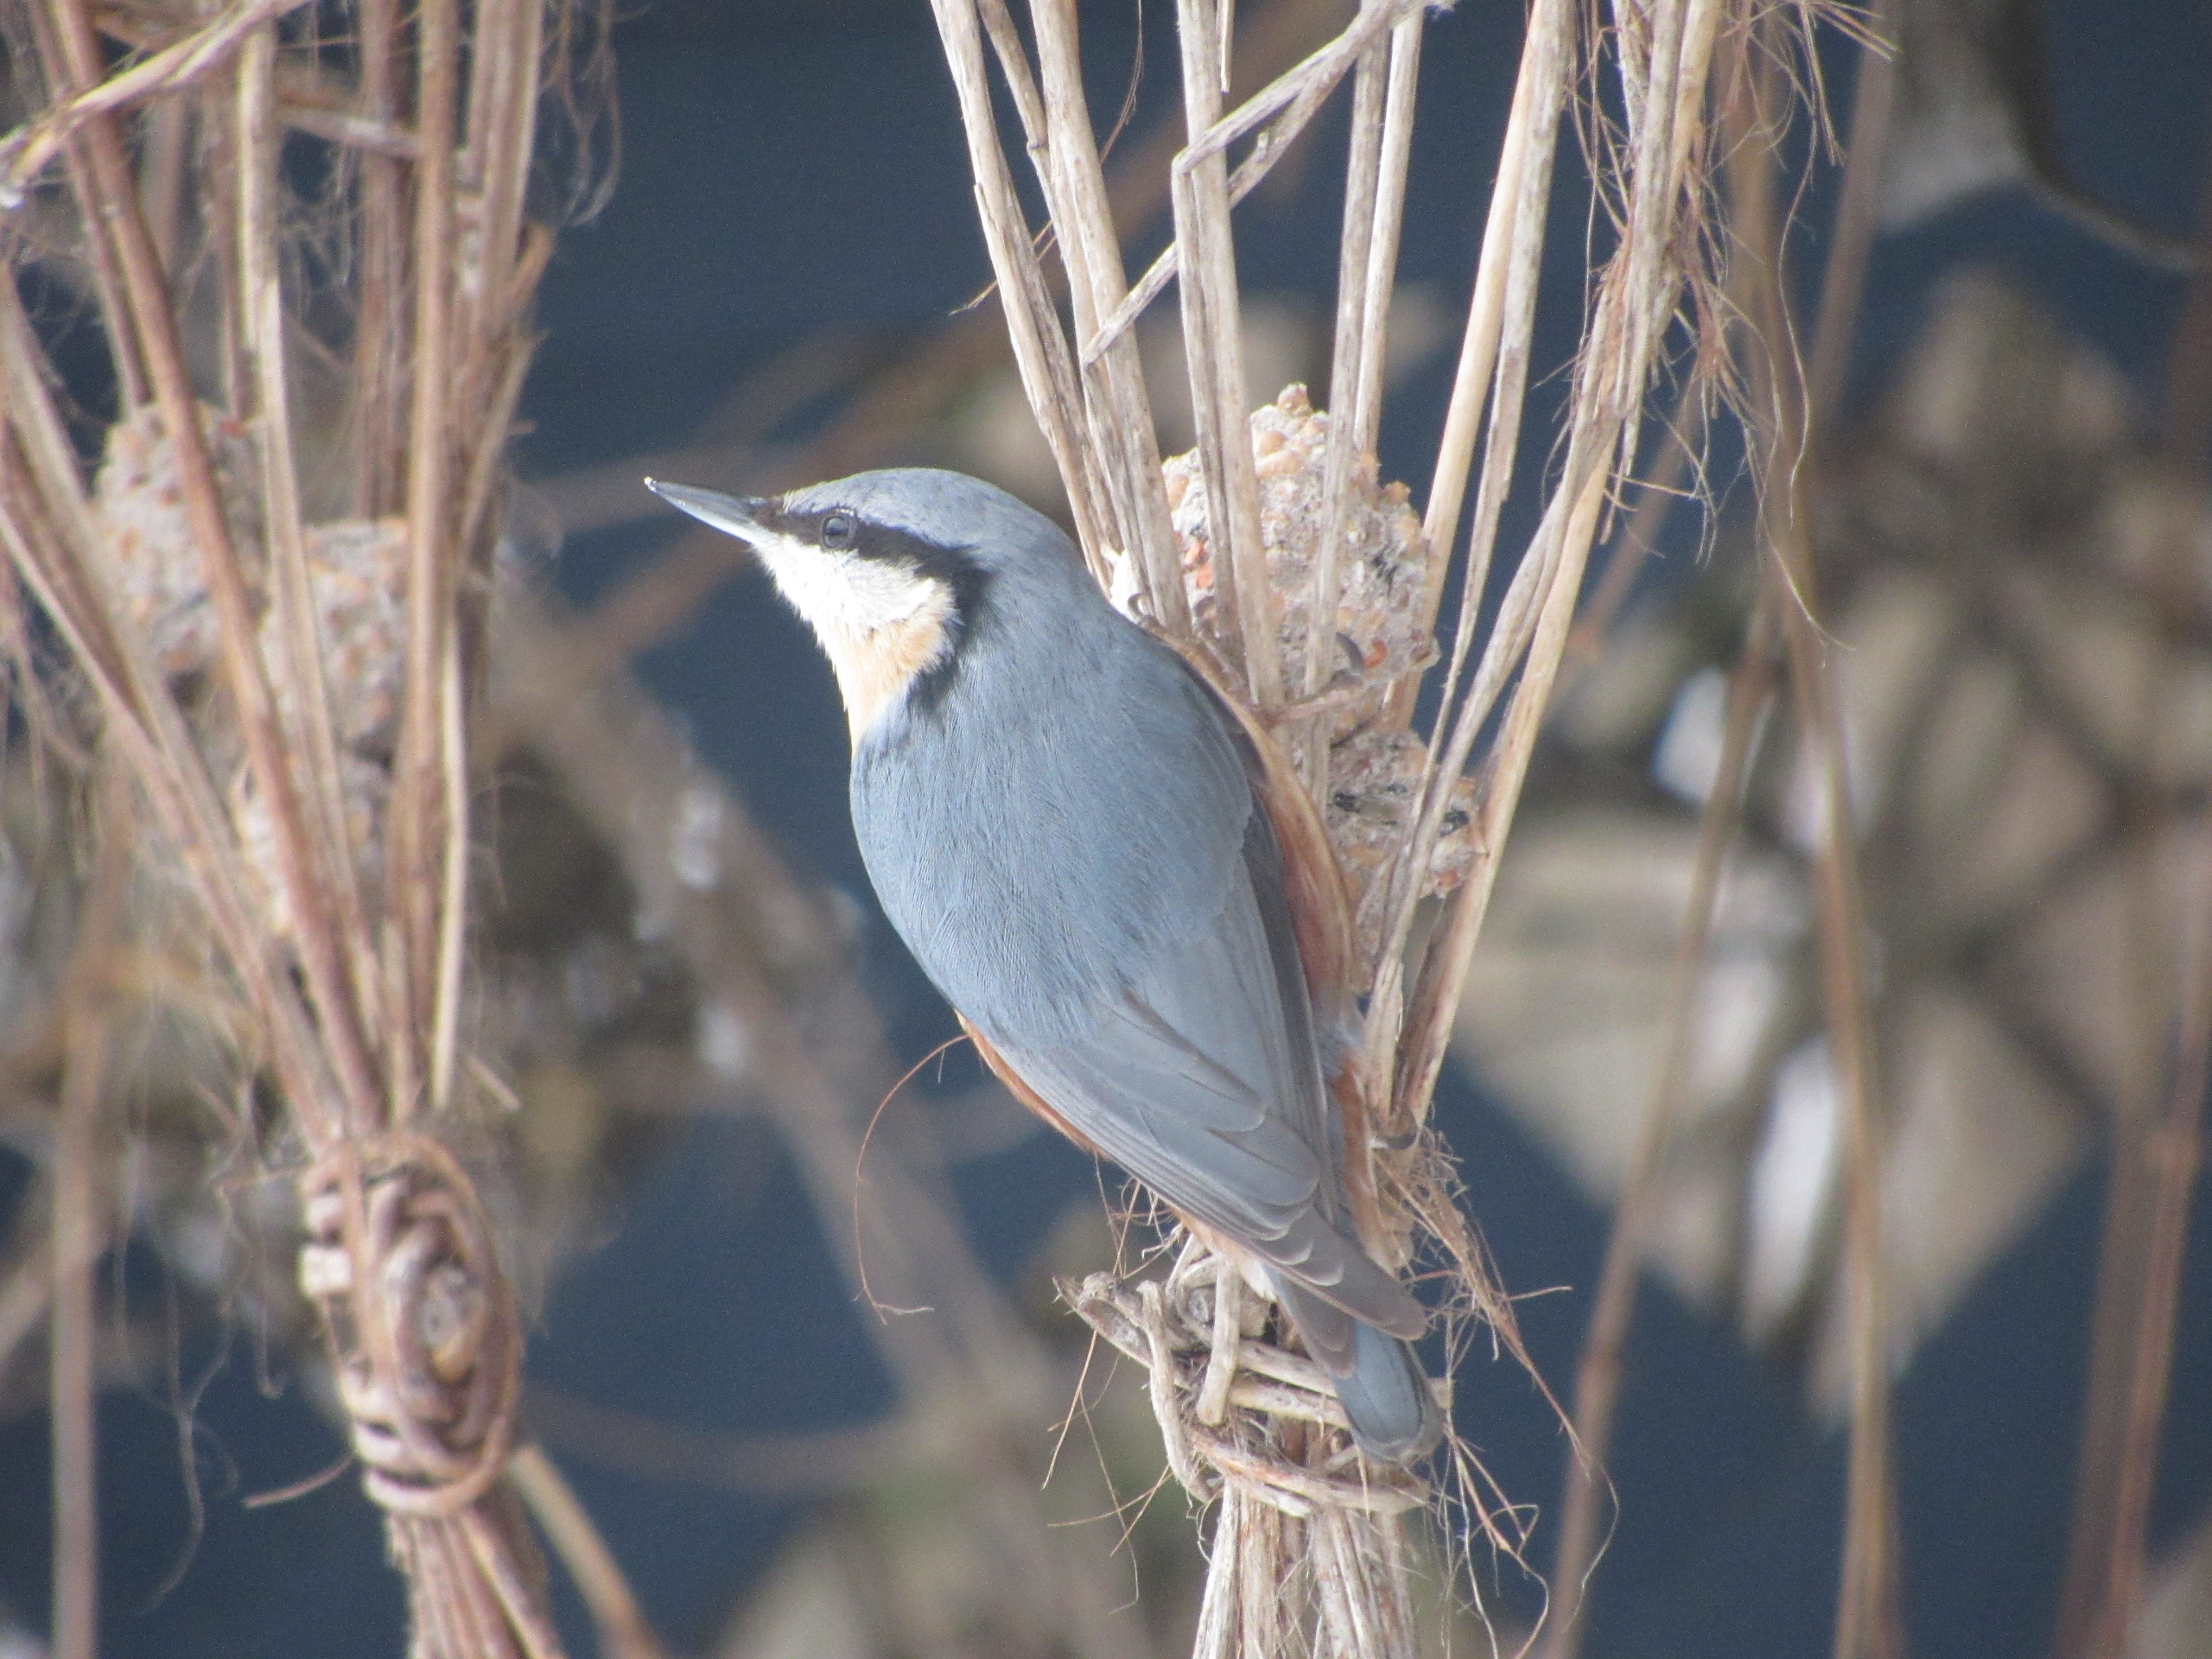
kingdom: Animalia
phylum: Chordata
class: Aves
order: Passeriformes
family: Sittidae
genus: Sitta
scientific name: Sitta europaea
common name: Spætmejse
